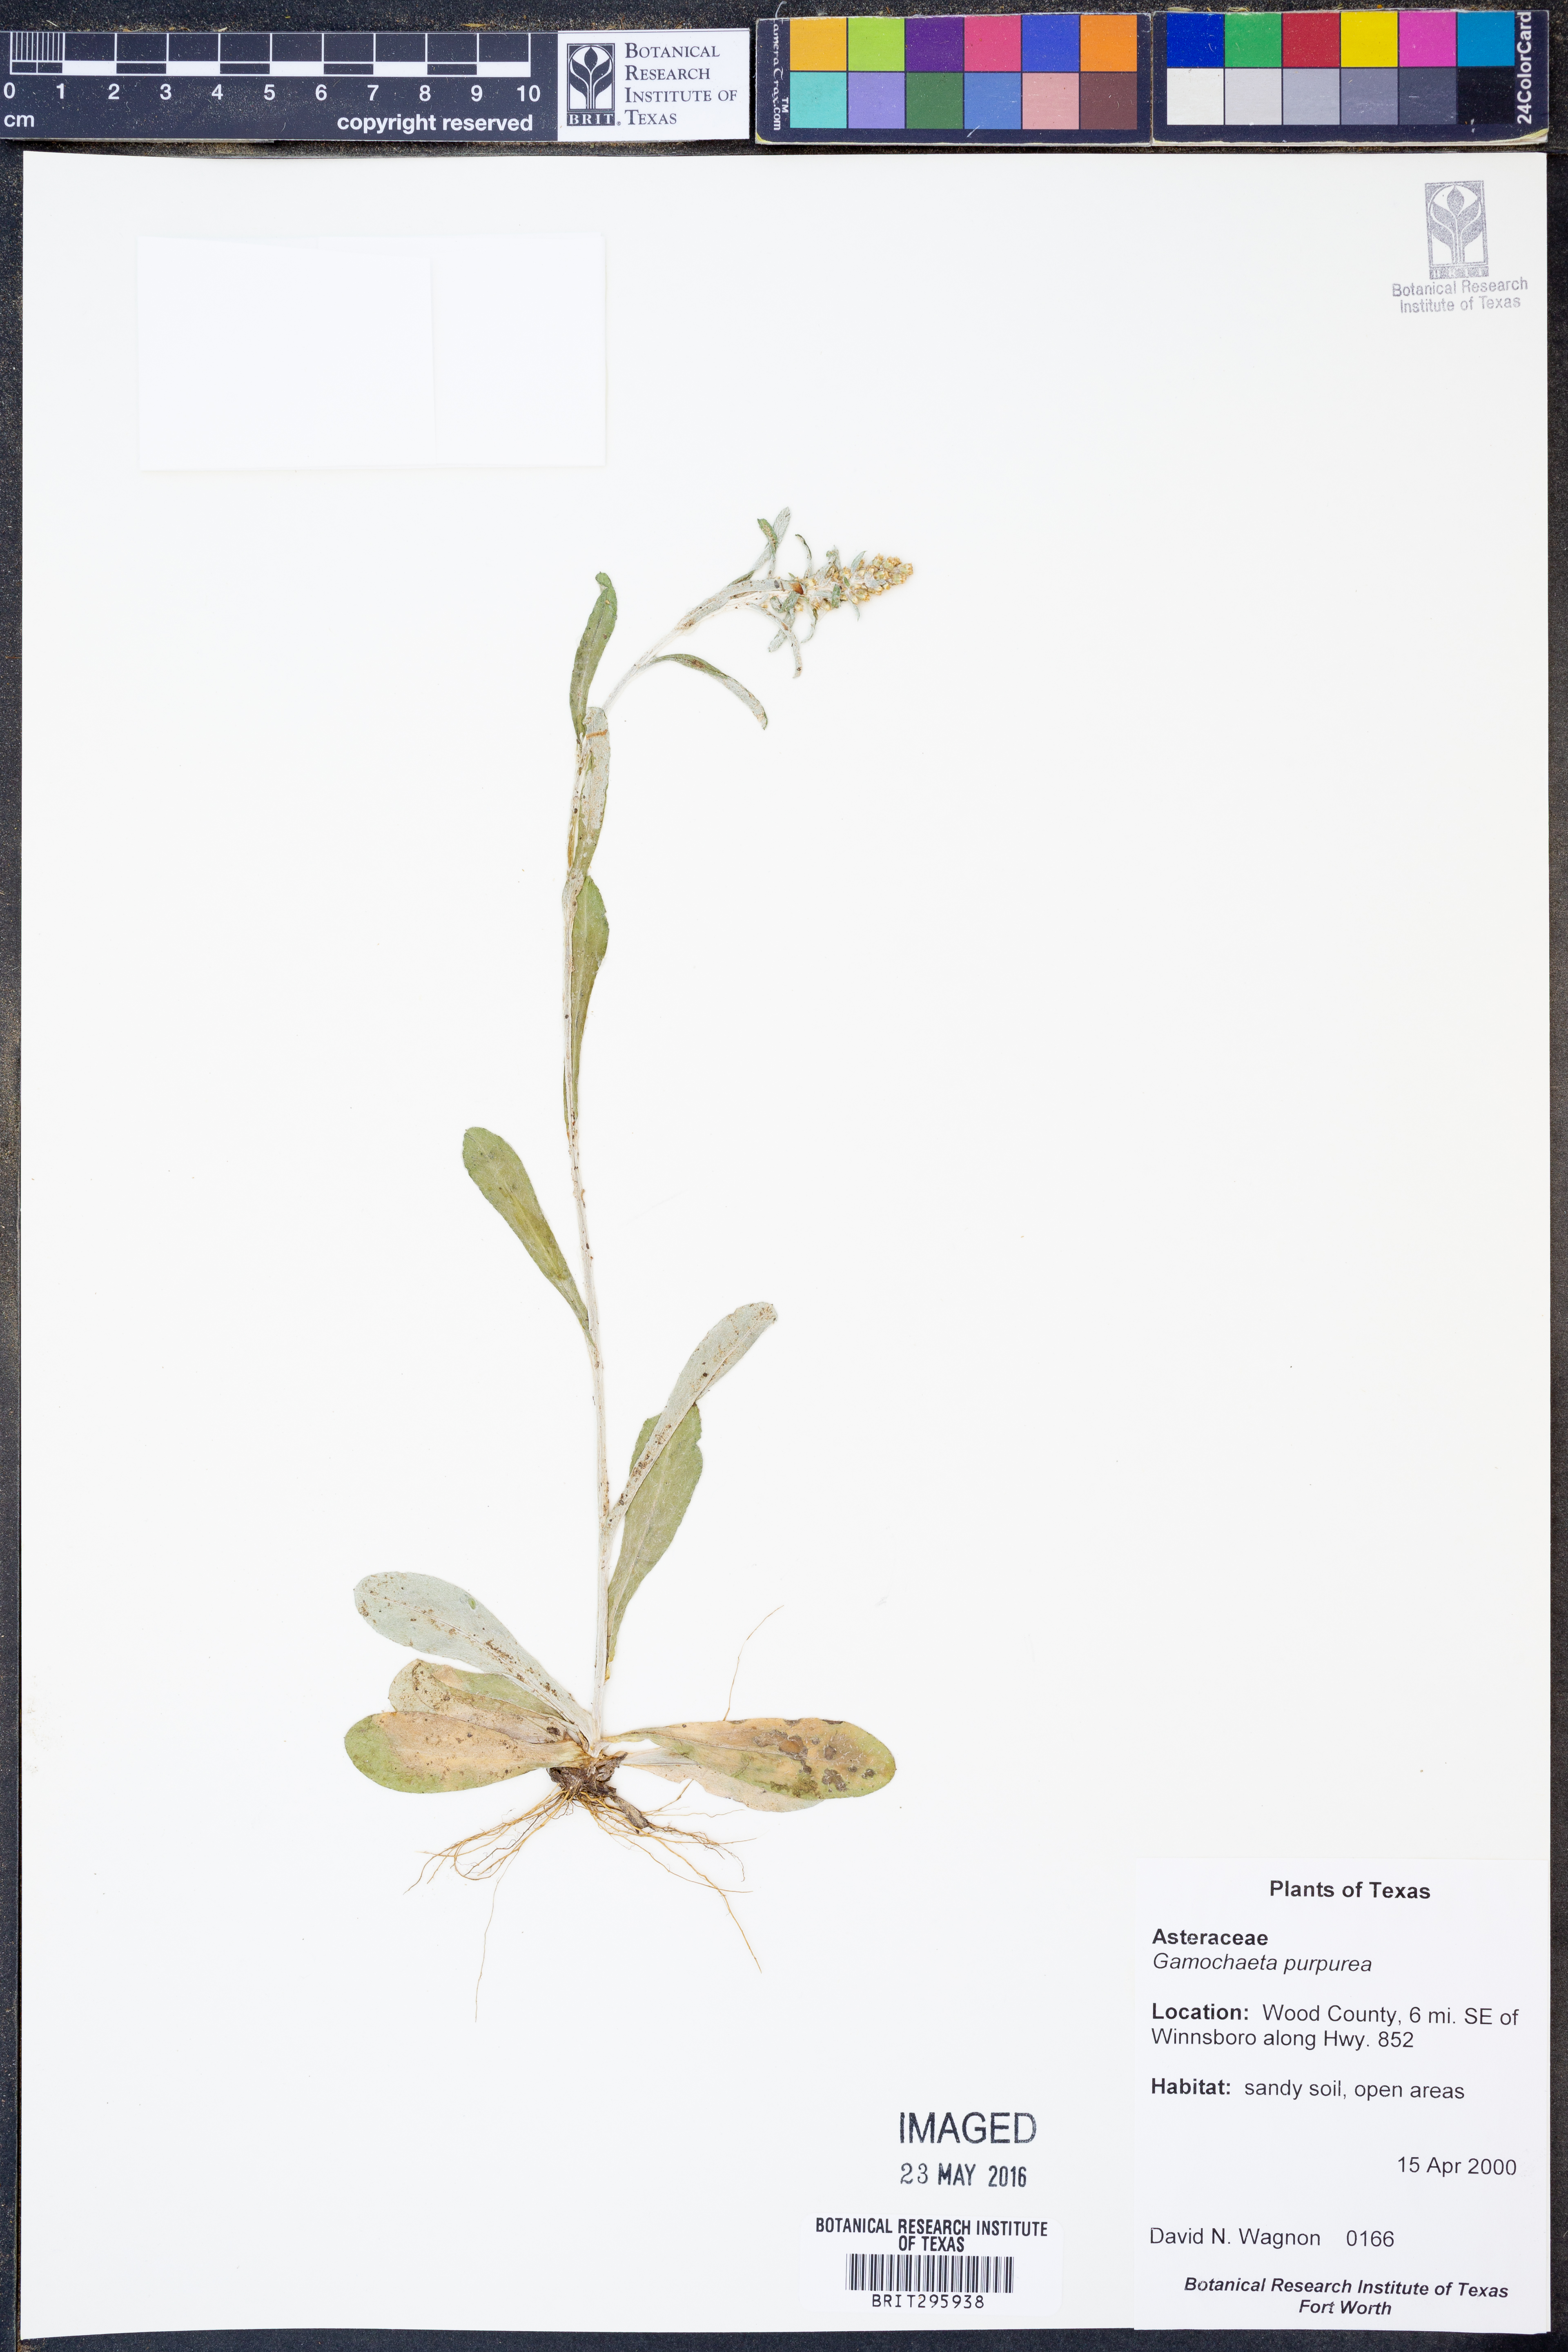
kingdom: Plantae
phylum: Tracheophyta
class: Magnoliopsida
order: Asterales
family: Asteraceae
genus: Gamochaeta
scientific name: Gamochaeta purpurea
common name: Purple cudweed
